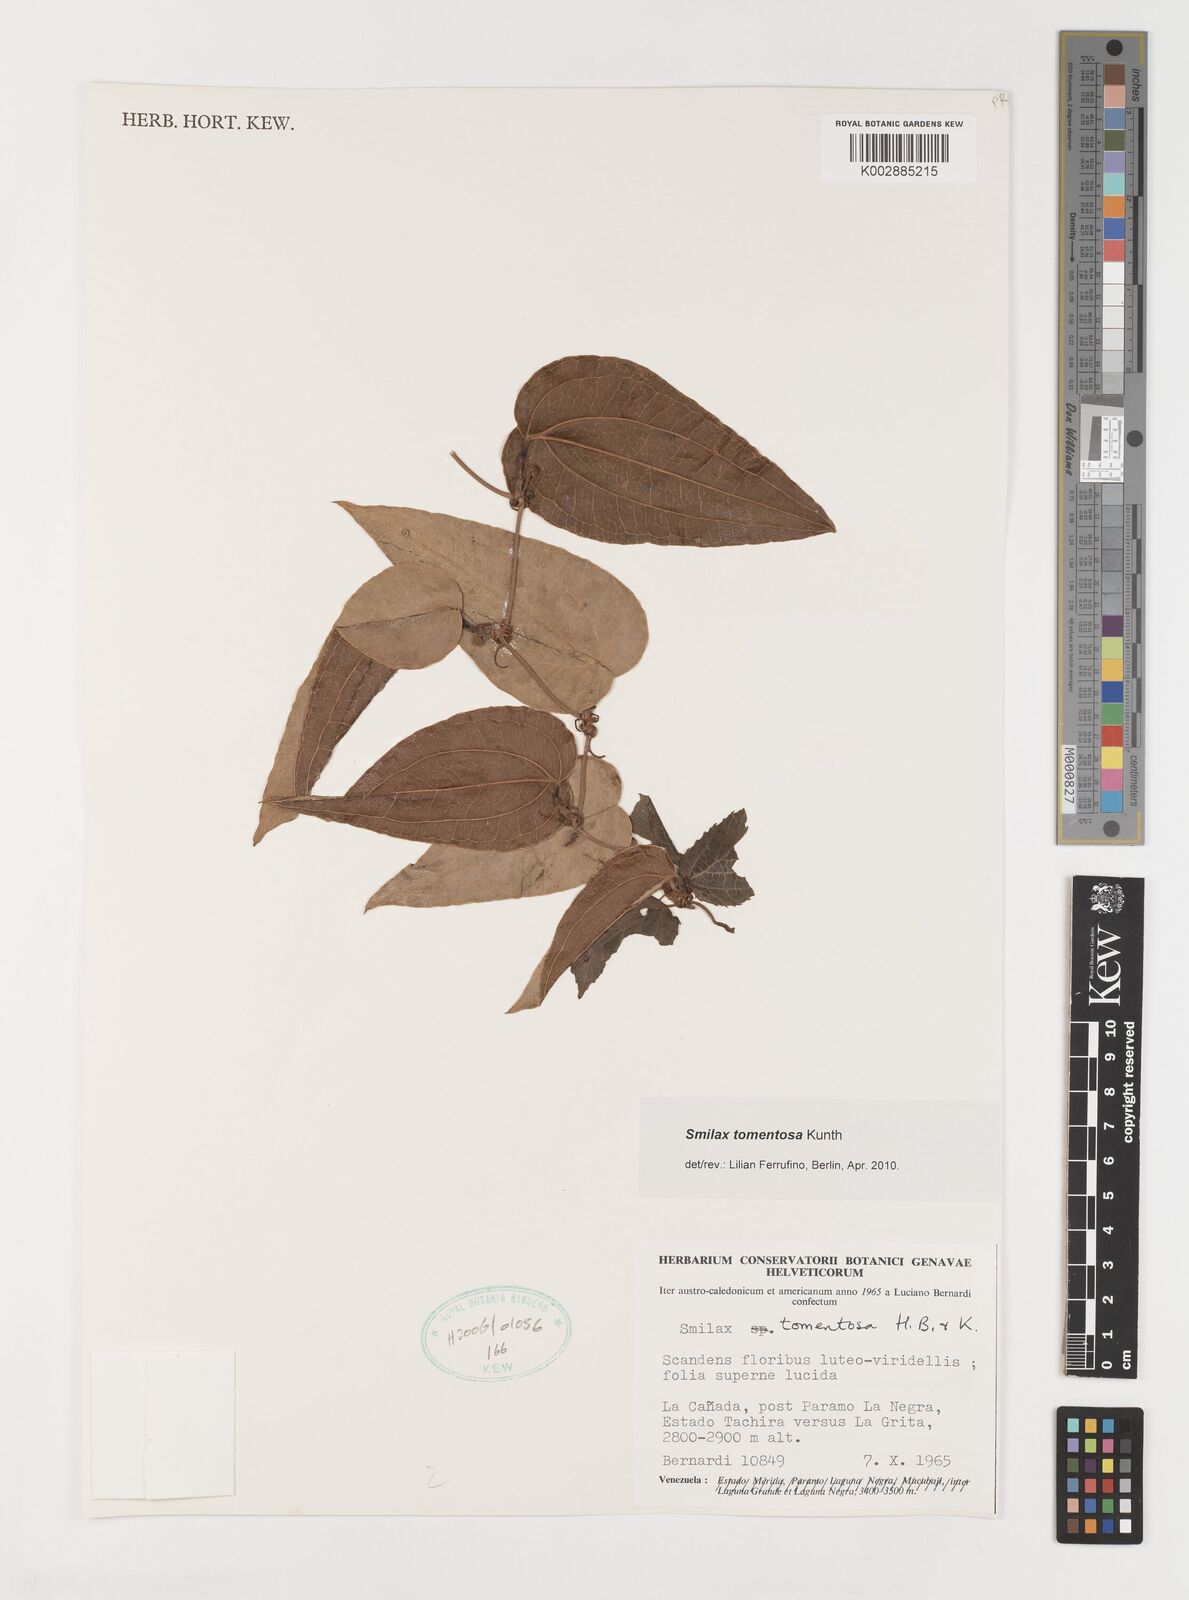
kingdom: Plantae
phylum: Tracheophyta
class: Liliopsida
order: Liliales
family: Smilacaceae
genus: Smilax
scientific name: Smilax tomentosa
